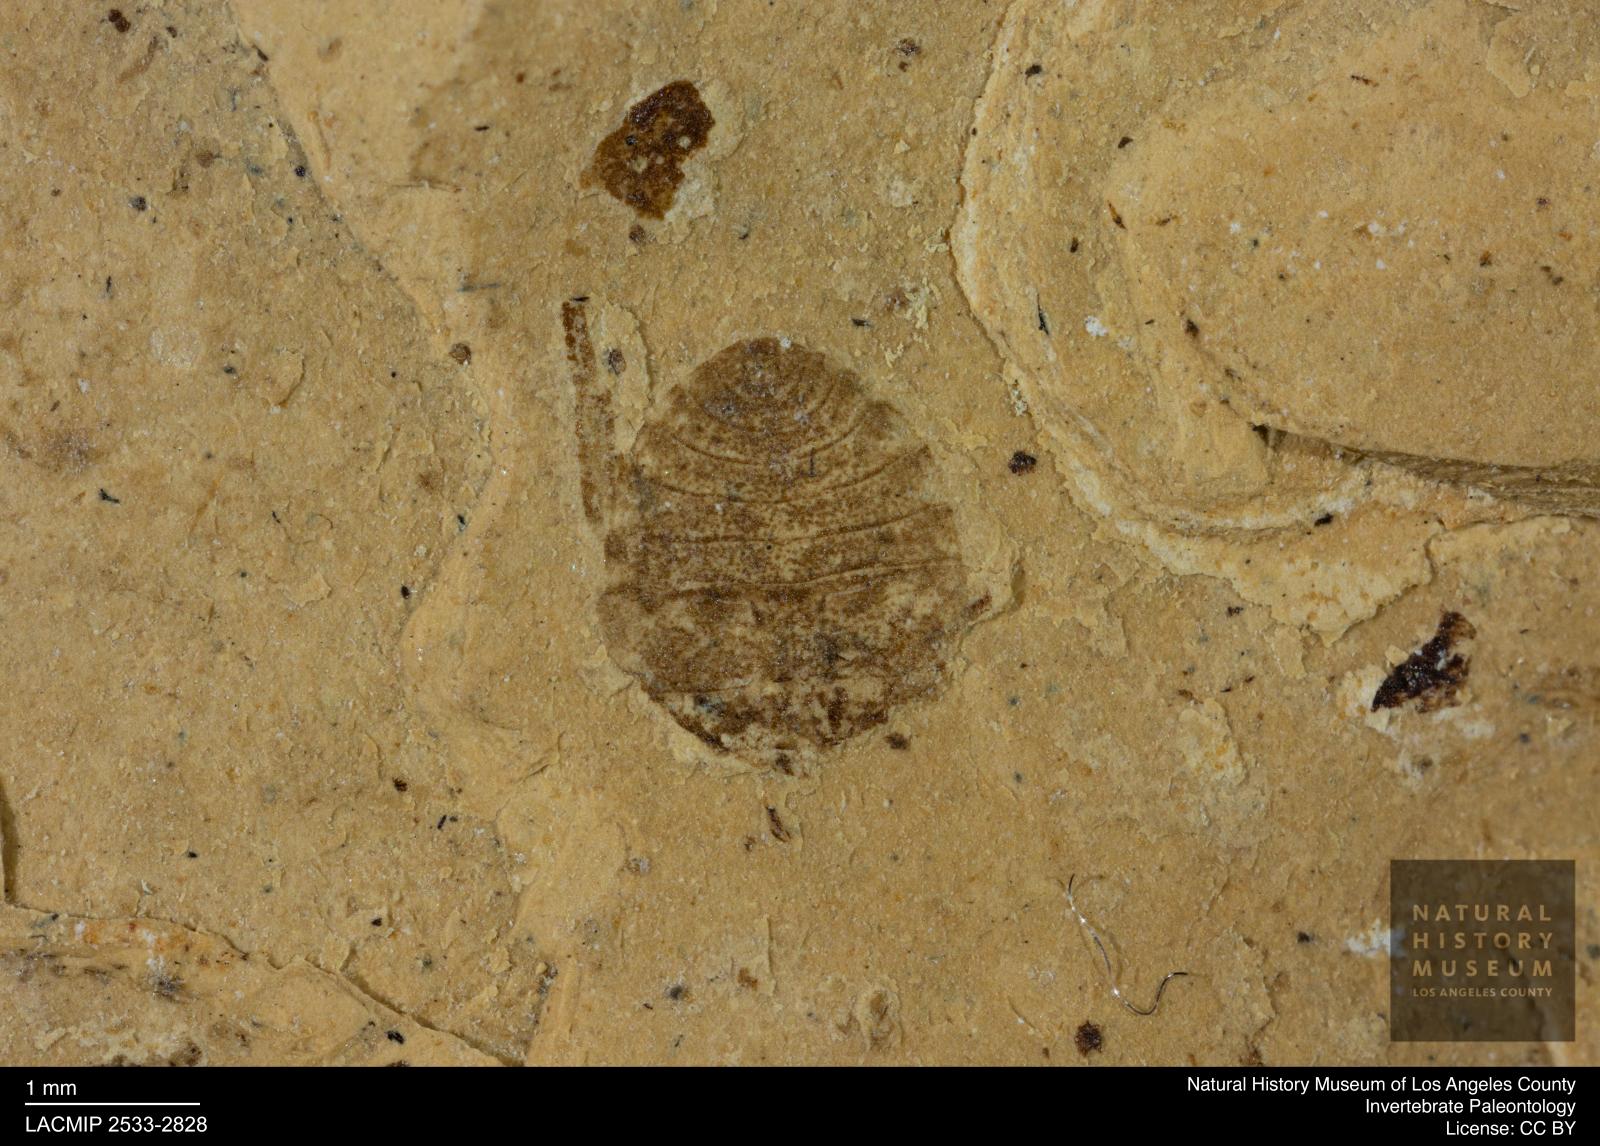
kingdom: Animalia
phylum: Arthropoda
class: Insecta
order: Hemiptera
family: Naucoridae
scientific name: Naucoridae
